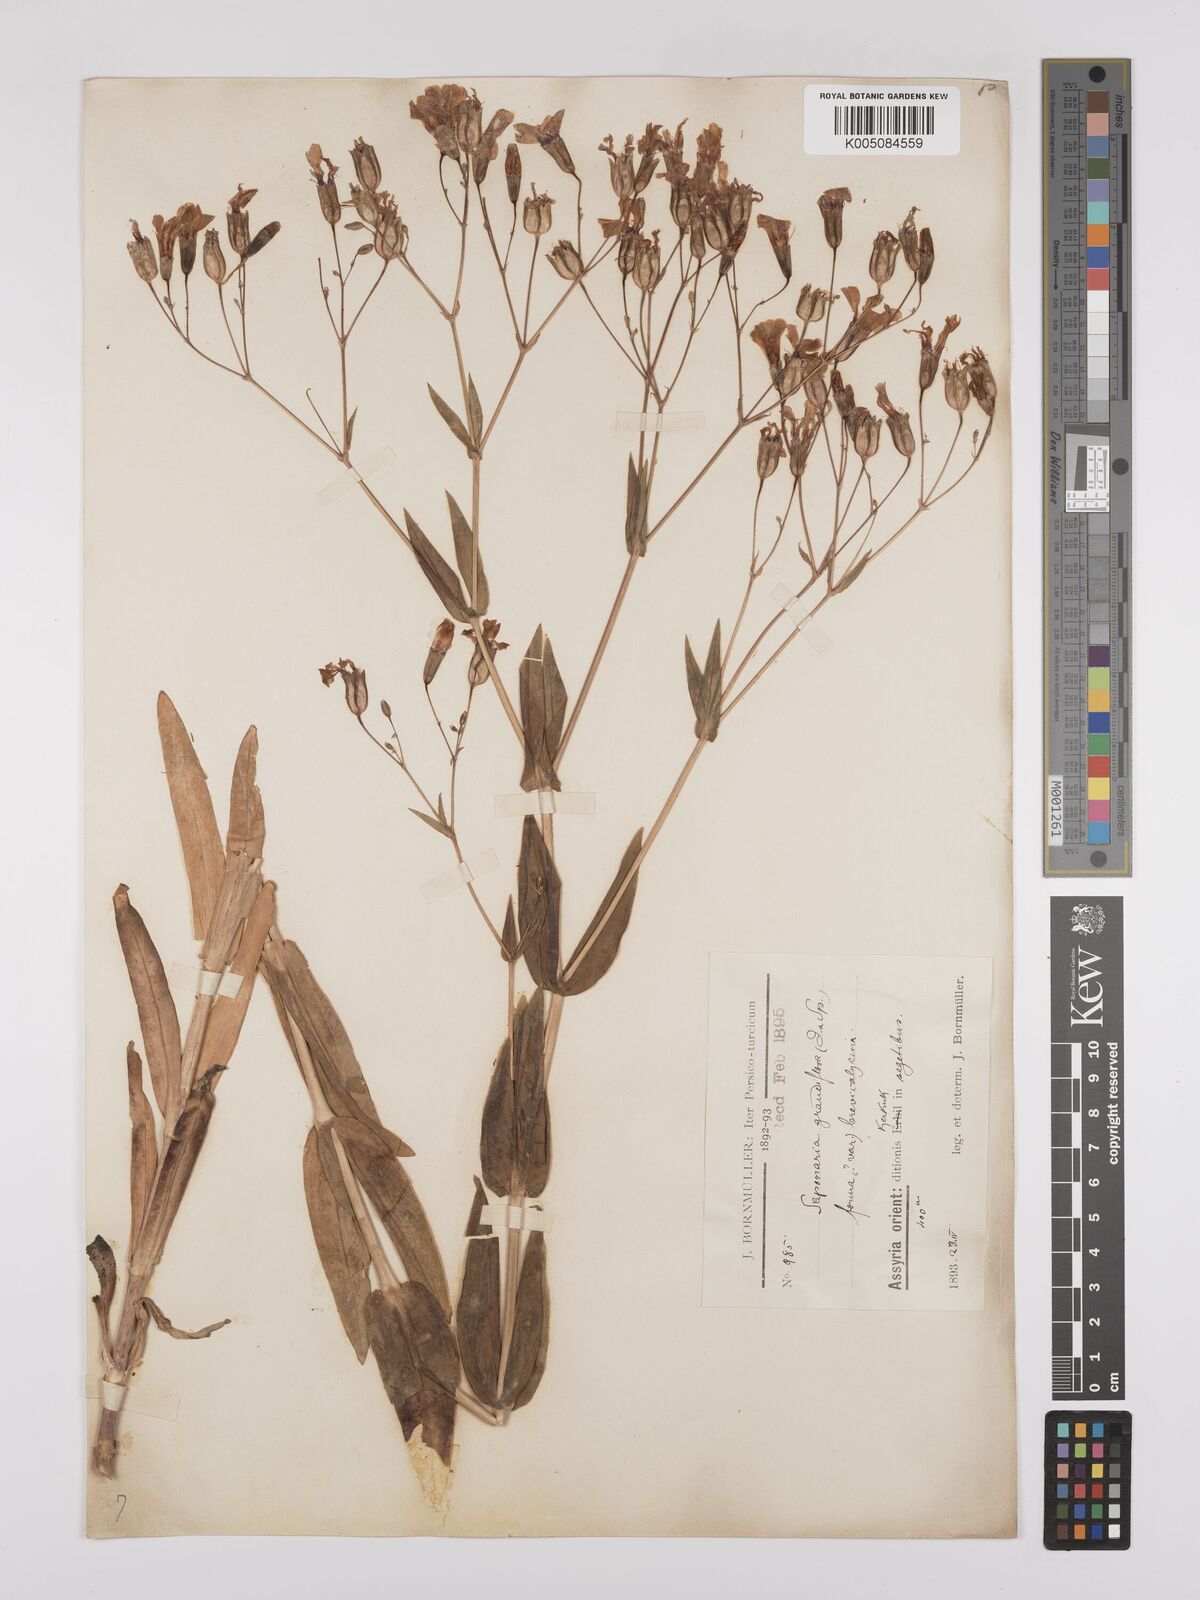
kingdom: Plantae
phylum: Tracheophyta
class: Magnoliopsida
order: Caryophyllales
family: Caryophyllaceae
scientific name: Caryophyllaceae
